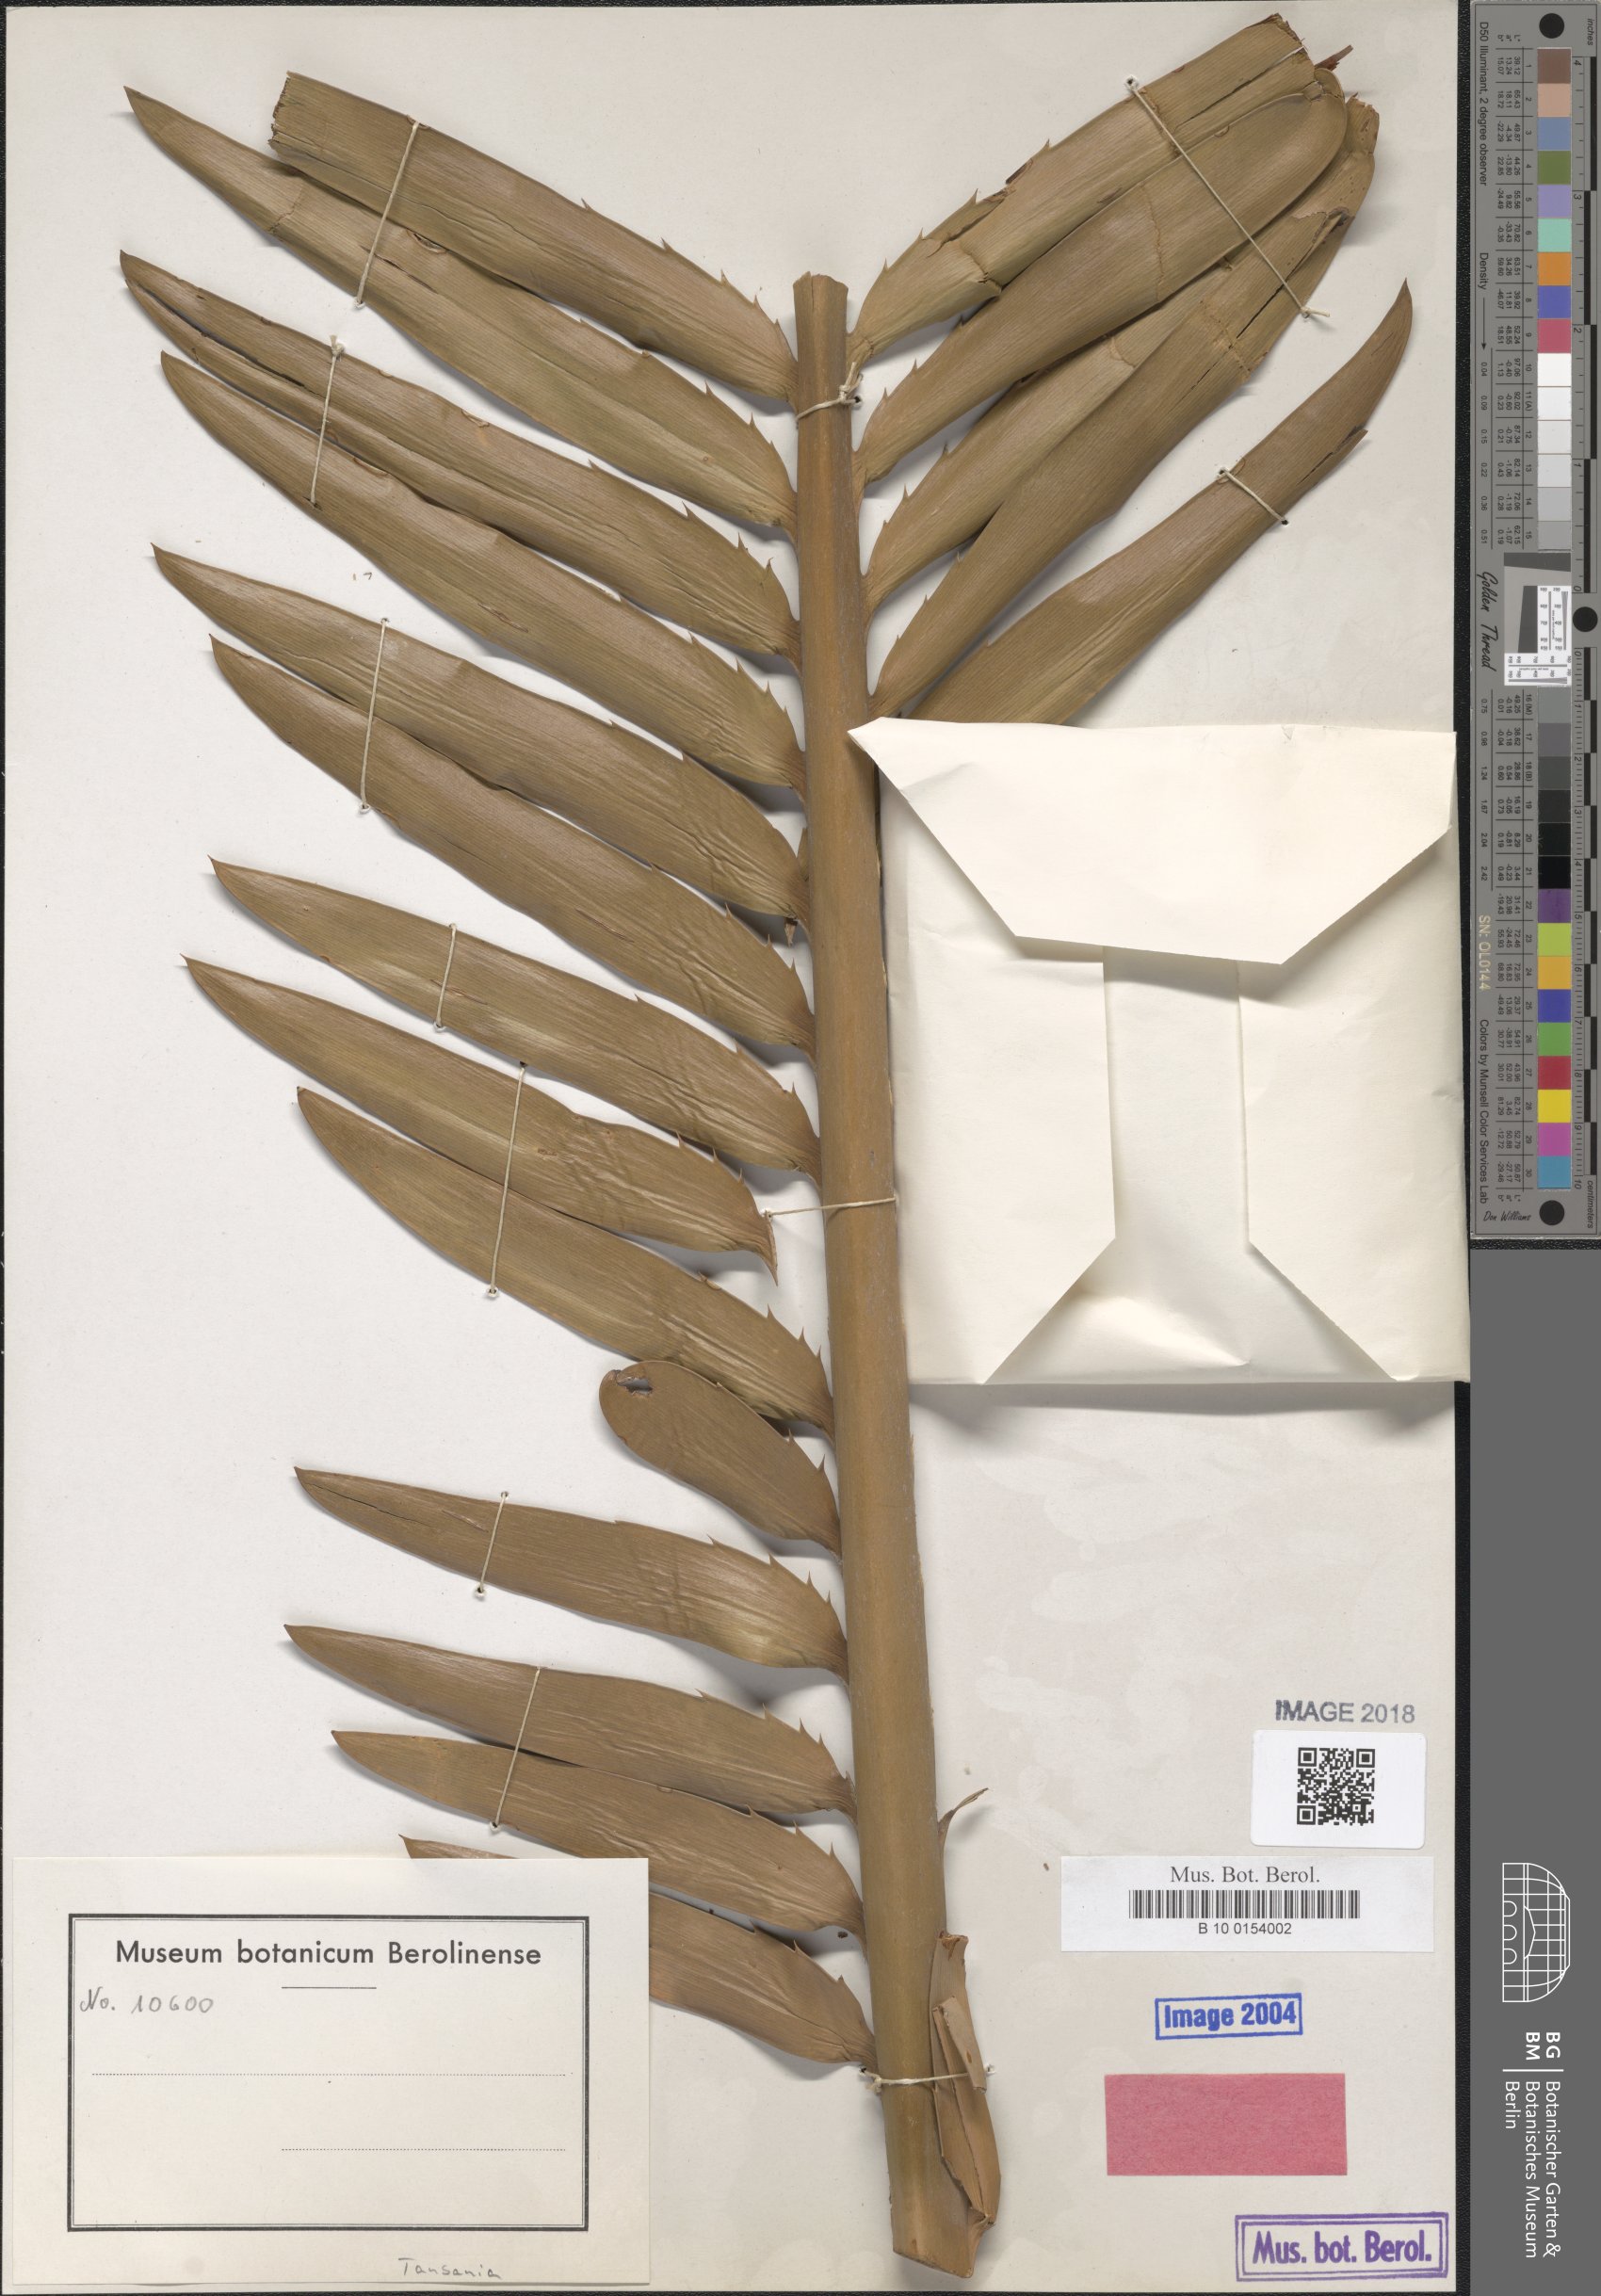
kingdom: Plantae
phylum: Tracheophyta
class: Cycadopsida
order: Cycadales
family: Zamiaceae
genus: Encephalartos
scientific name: Encephalartos bubalinus
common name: Lake natron cycad
